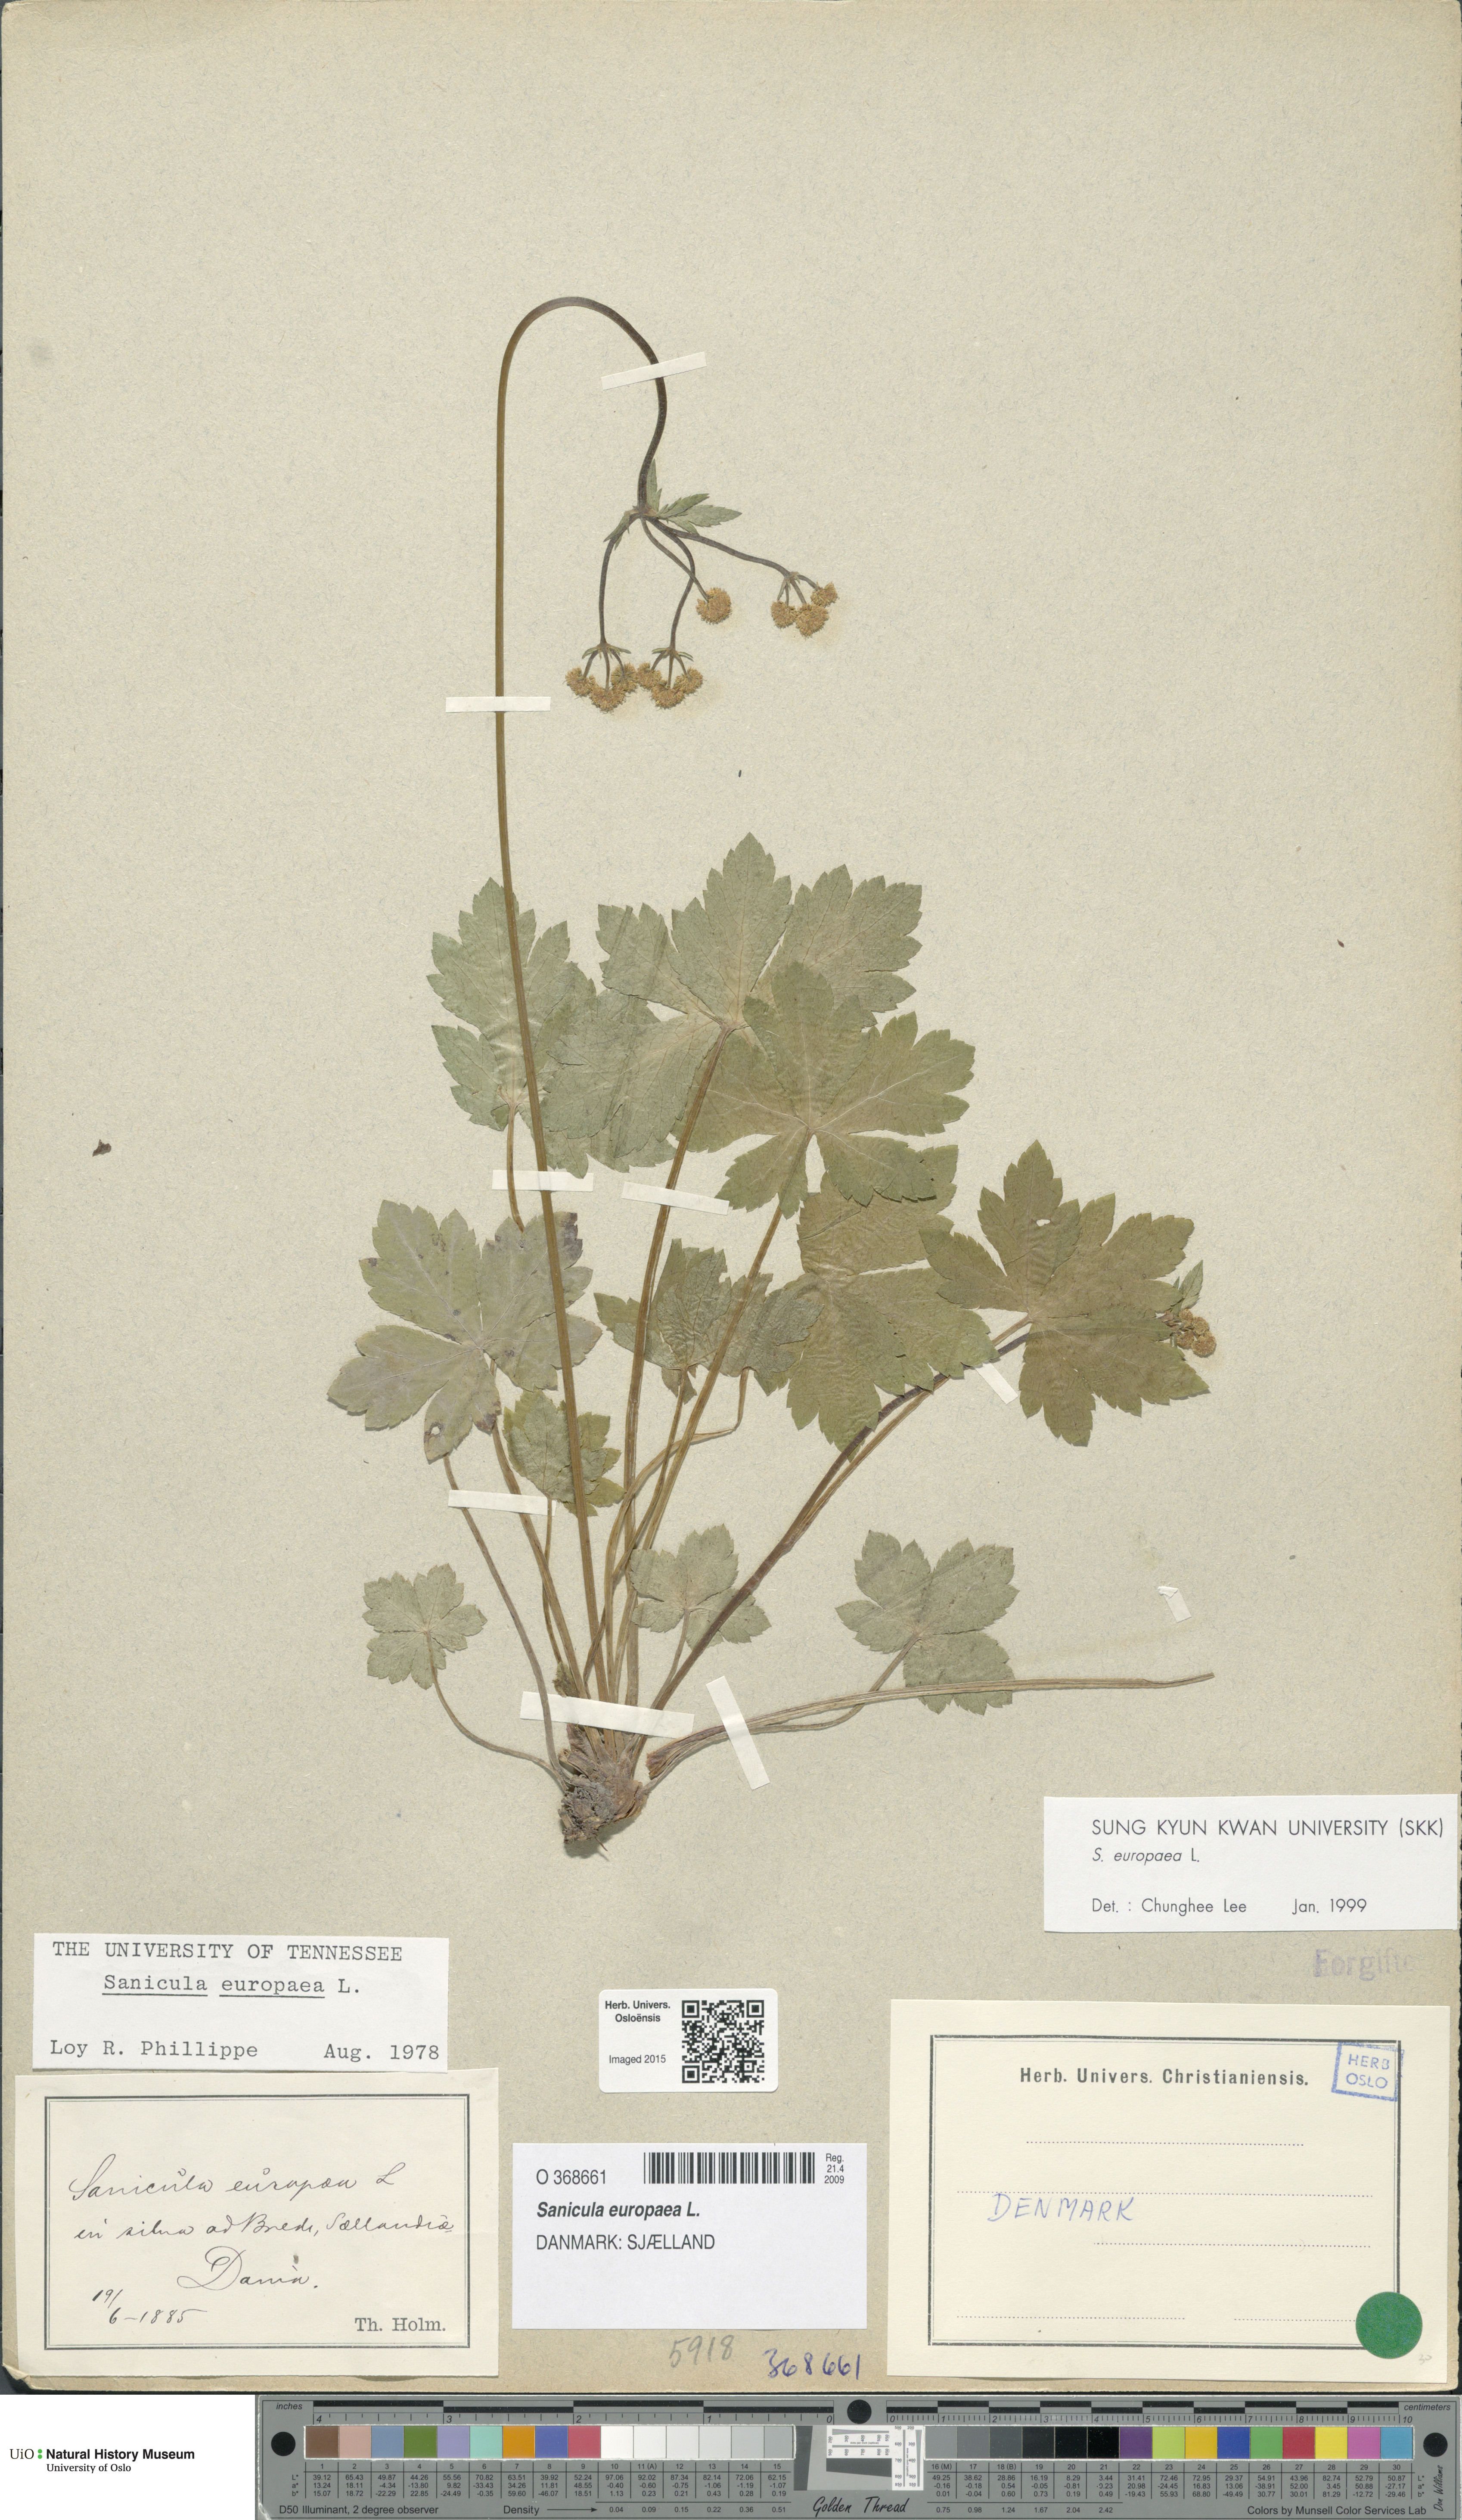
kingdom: Plantae
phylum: Tracheophyta
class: Magnoliopsida
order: Apiales
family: Apiaceae
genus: Sanicula
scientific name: Sanicula europaea
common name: Sanicle
